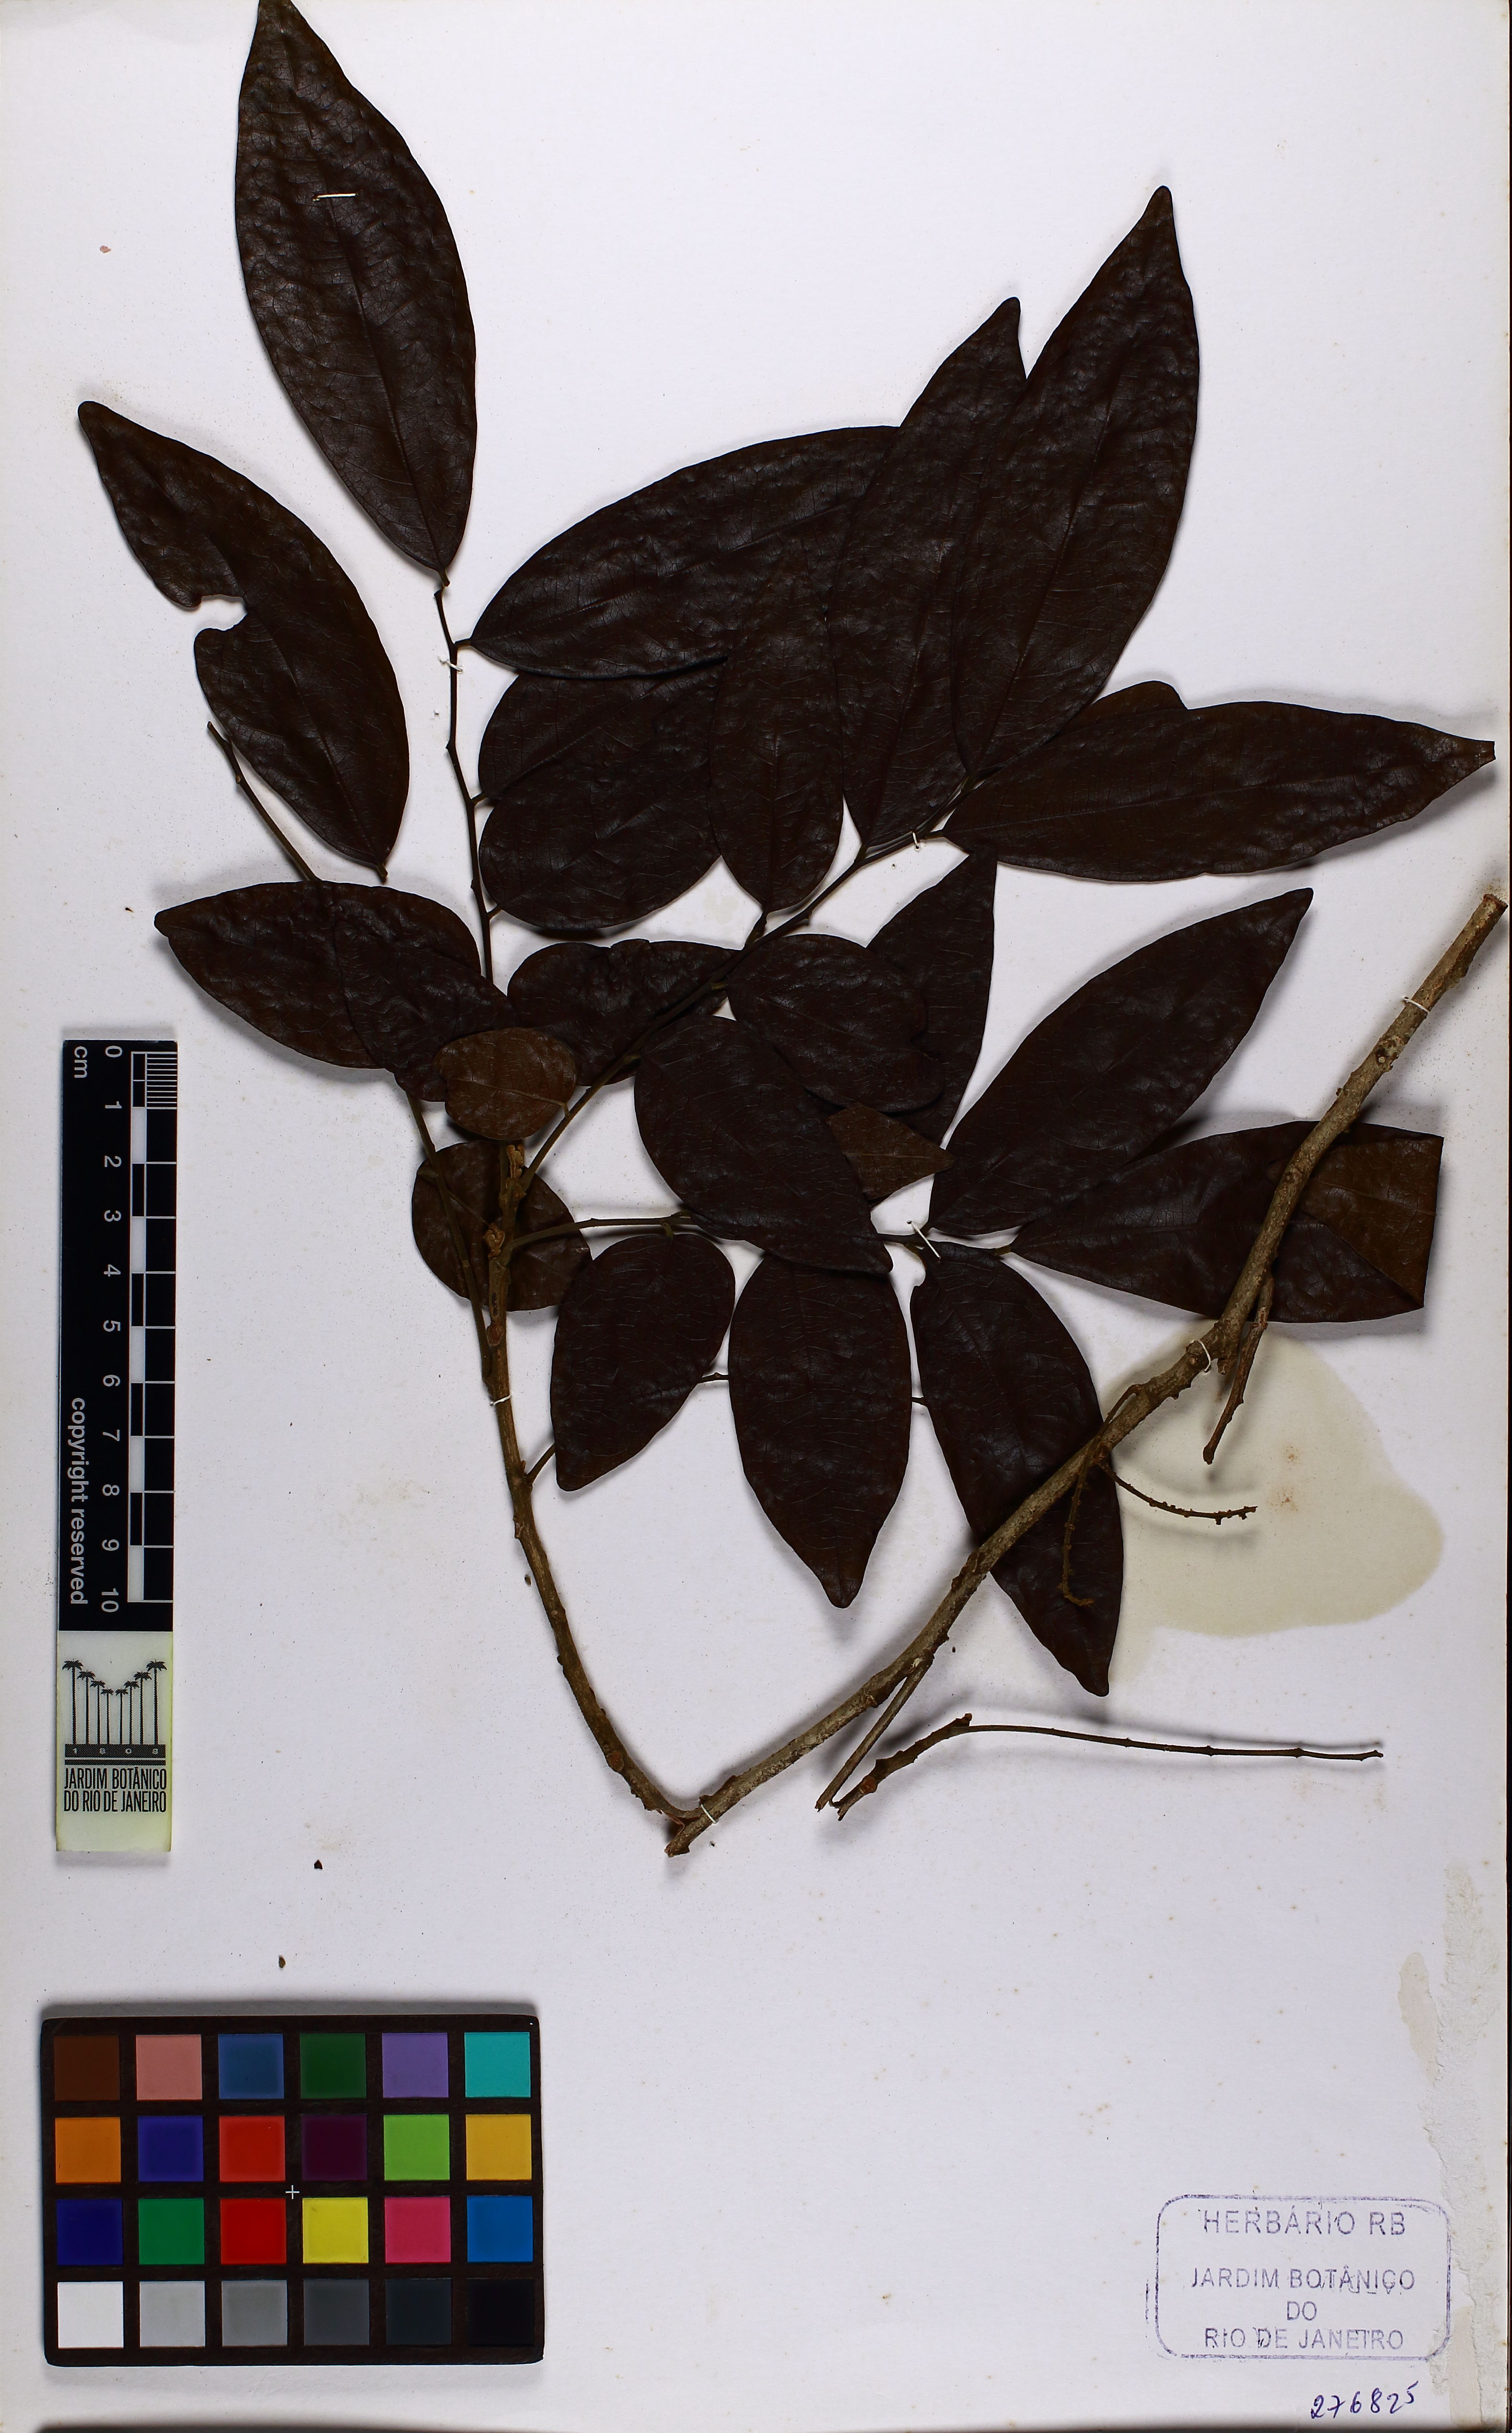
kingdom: Plantae
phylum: Tracheophyta
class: Magnoliopsida
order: Sapindales
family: Meliaceae
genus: Trichilia
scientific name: Trichilia hirta
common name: Red-cedar
